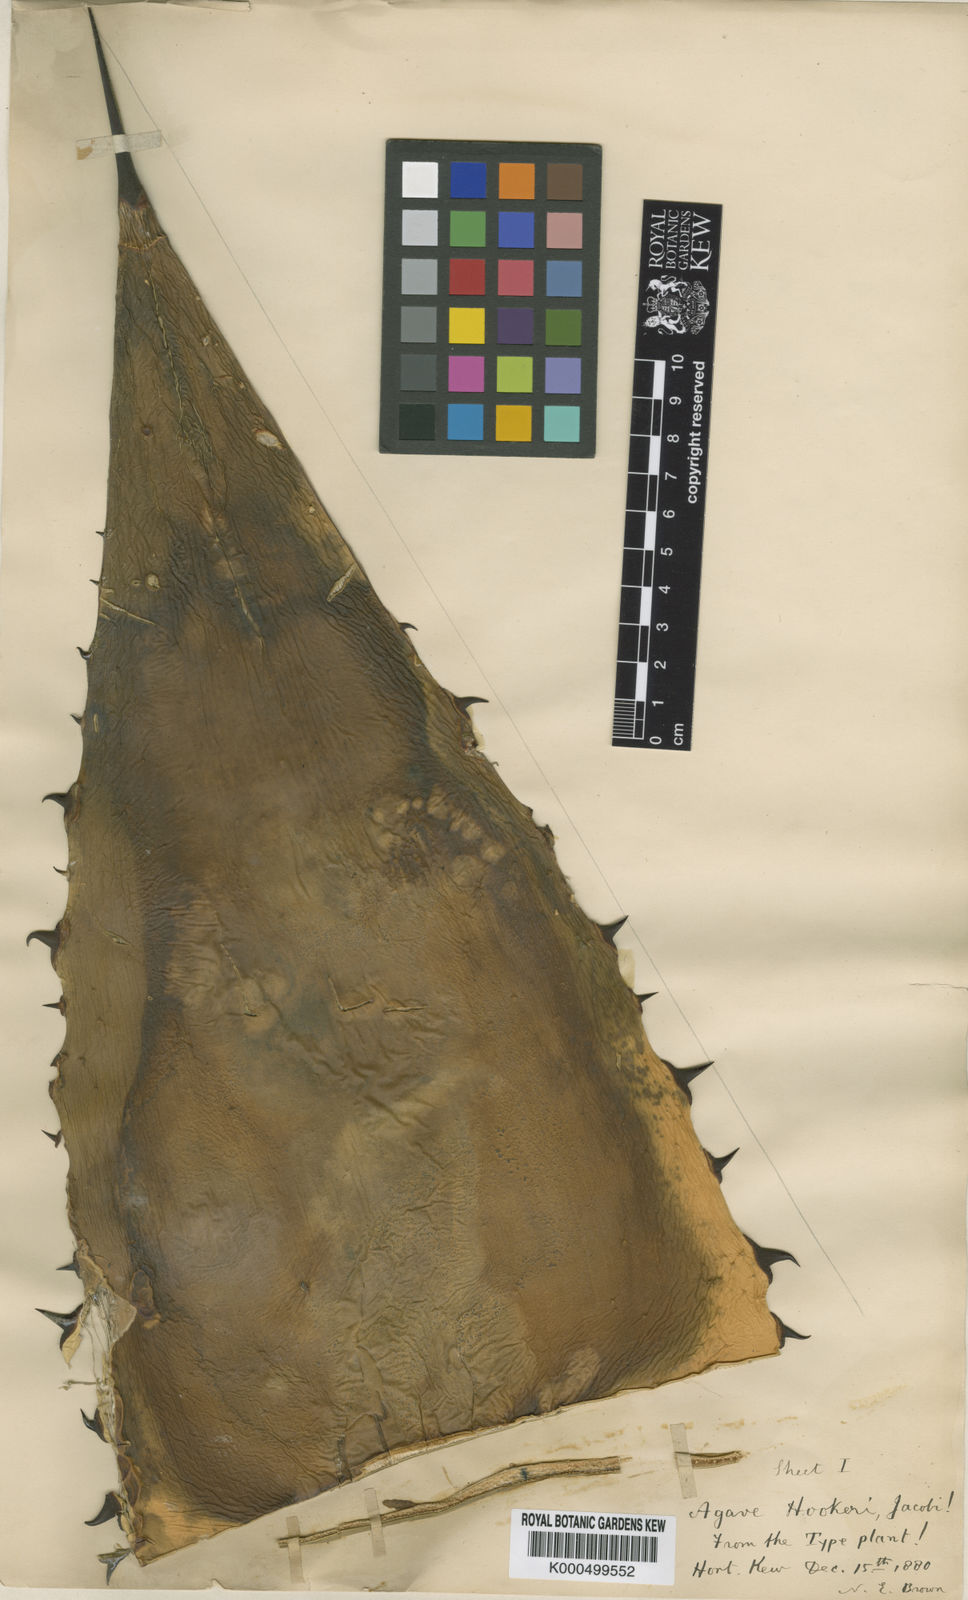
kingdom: Plantae
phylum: Tracheophyta
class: Liliopsida
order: Asparagales
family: Asparagaceae
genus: Agave
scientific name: Agave hookeri
